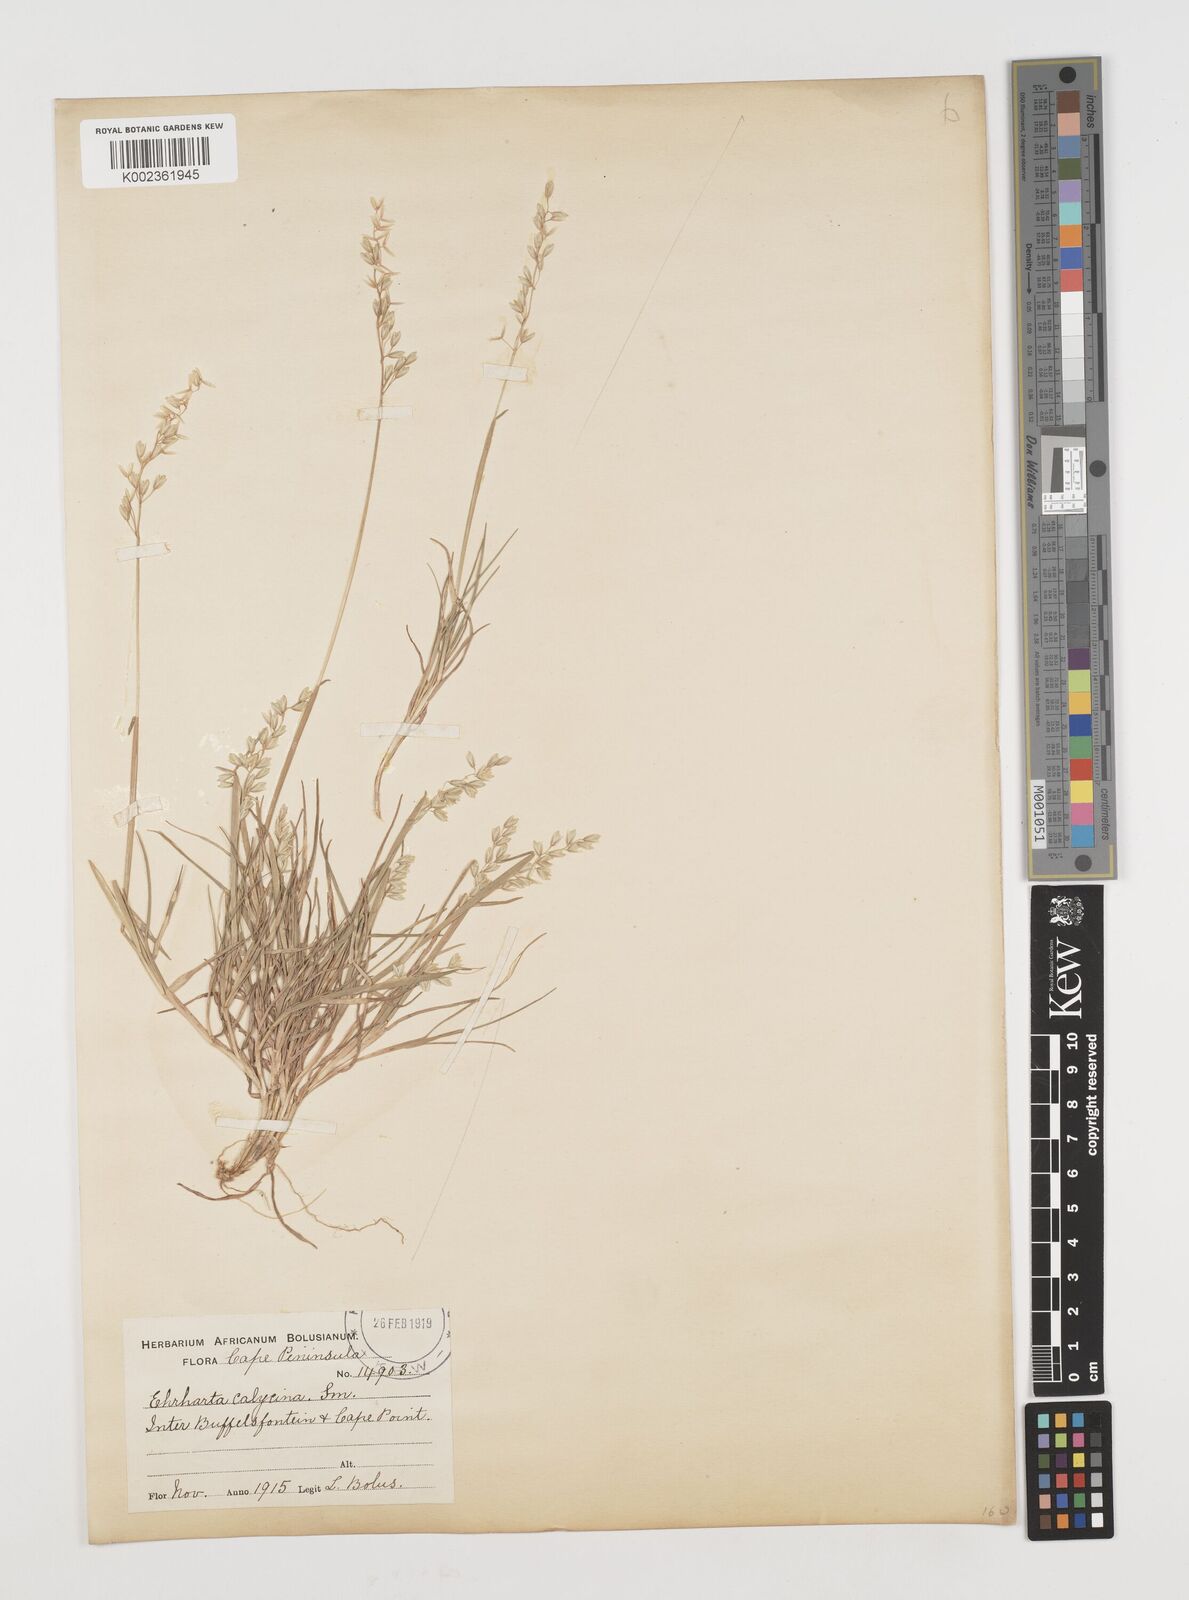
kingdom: Plantae
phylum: Tracheophyta
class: Liliopsida
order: Poales
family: Poaceae
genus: Ehrharta
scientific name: Ehrharta calycina
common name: Perennial veldtgrass
